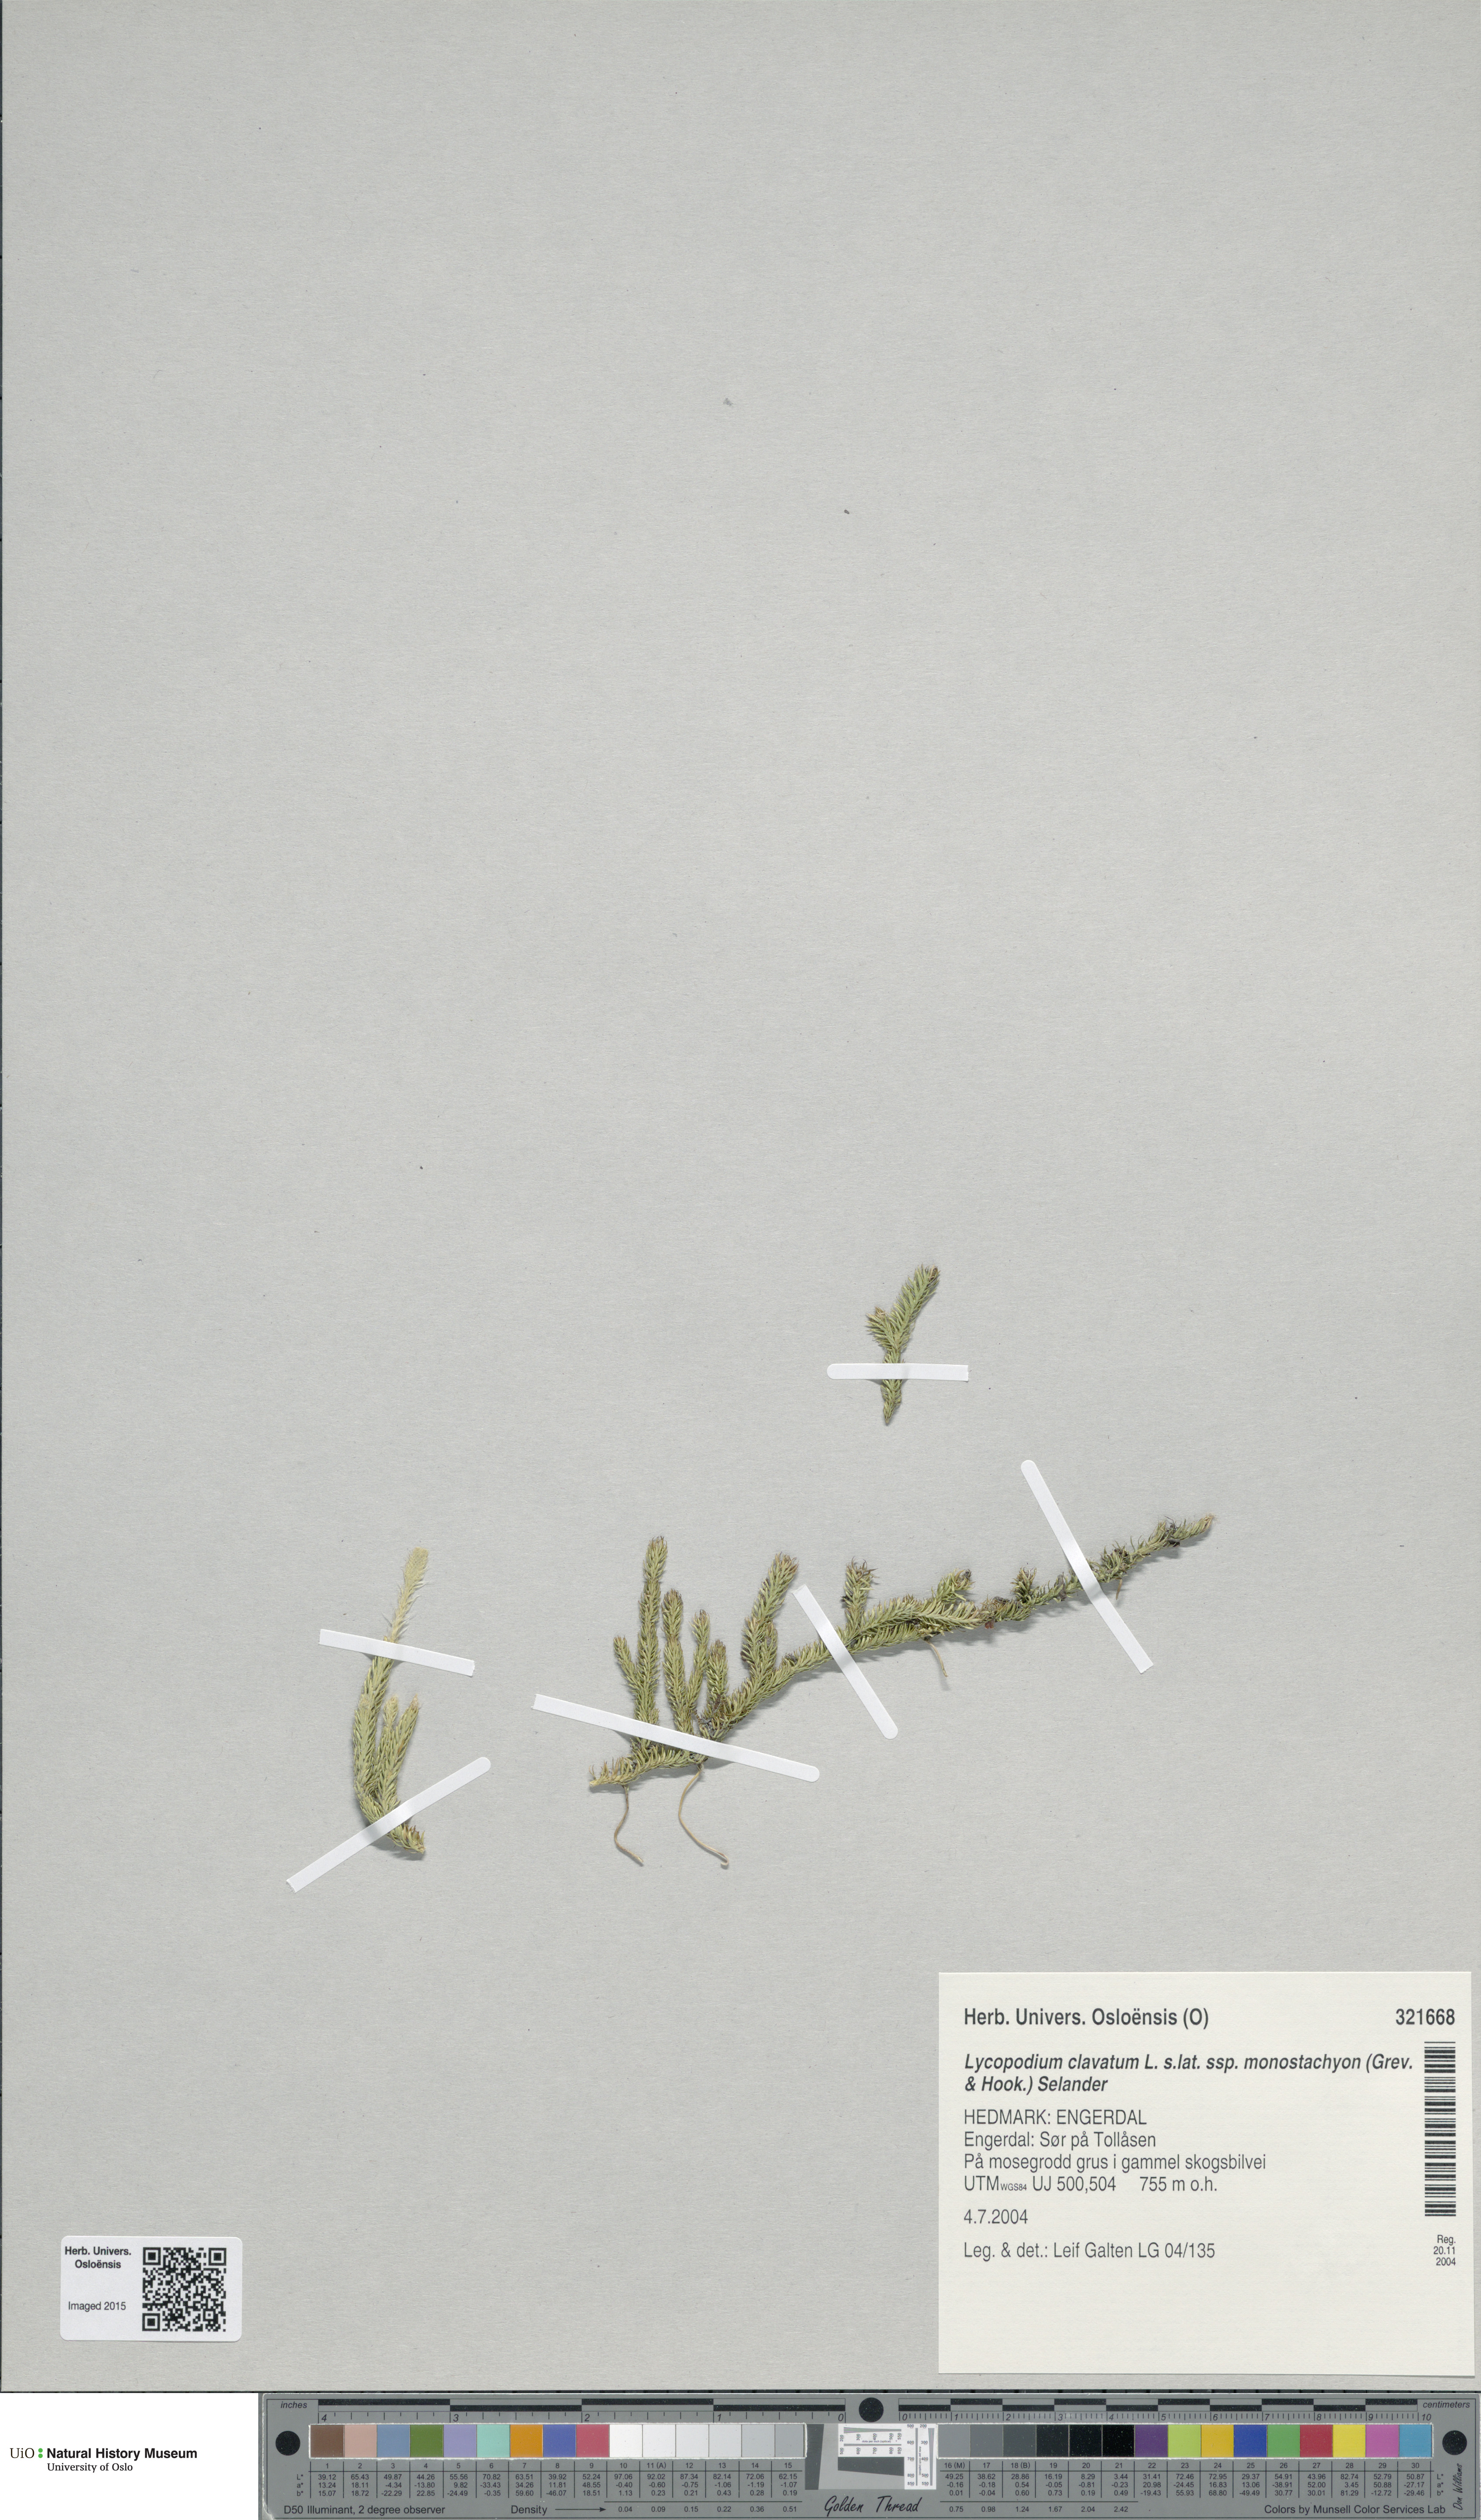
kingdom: Plantae
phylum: Tracheophyta
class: Lycopodiopsida
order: Lycopodiales
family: Lycopodiaceae
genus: Lycopodium
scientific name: Lycopodium lagopus
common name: One-cone clubmoss
